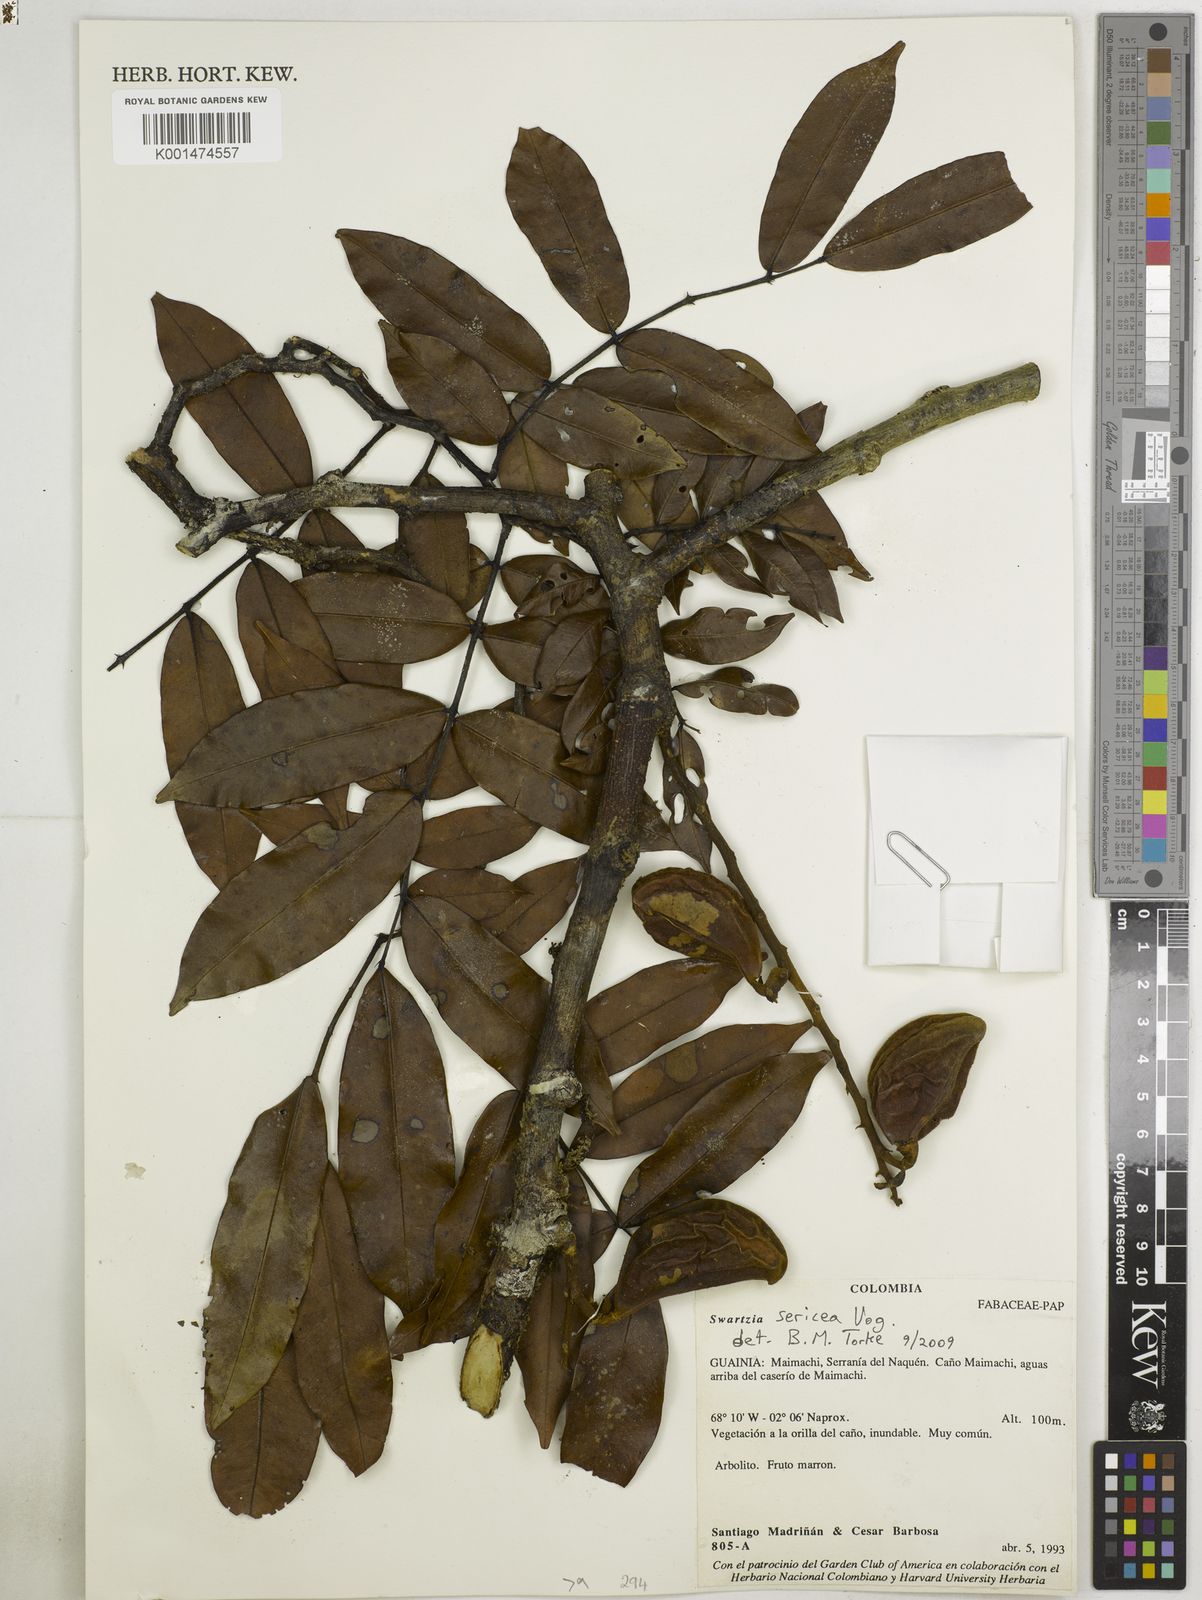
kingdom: Plantae
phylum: Tracheophyta
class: Magnoliopsida
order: Fabales
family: Fabaceae
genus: Swartzia
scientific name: Swartzia sericea
